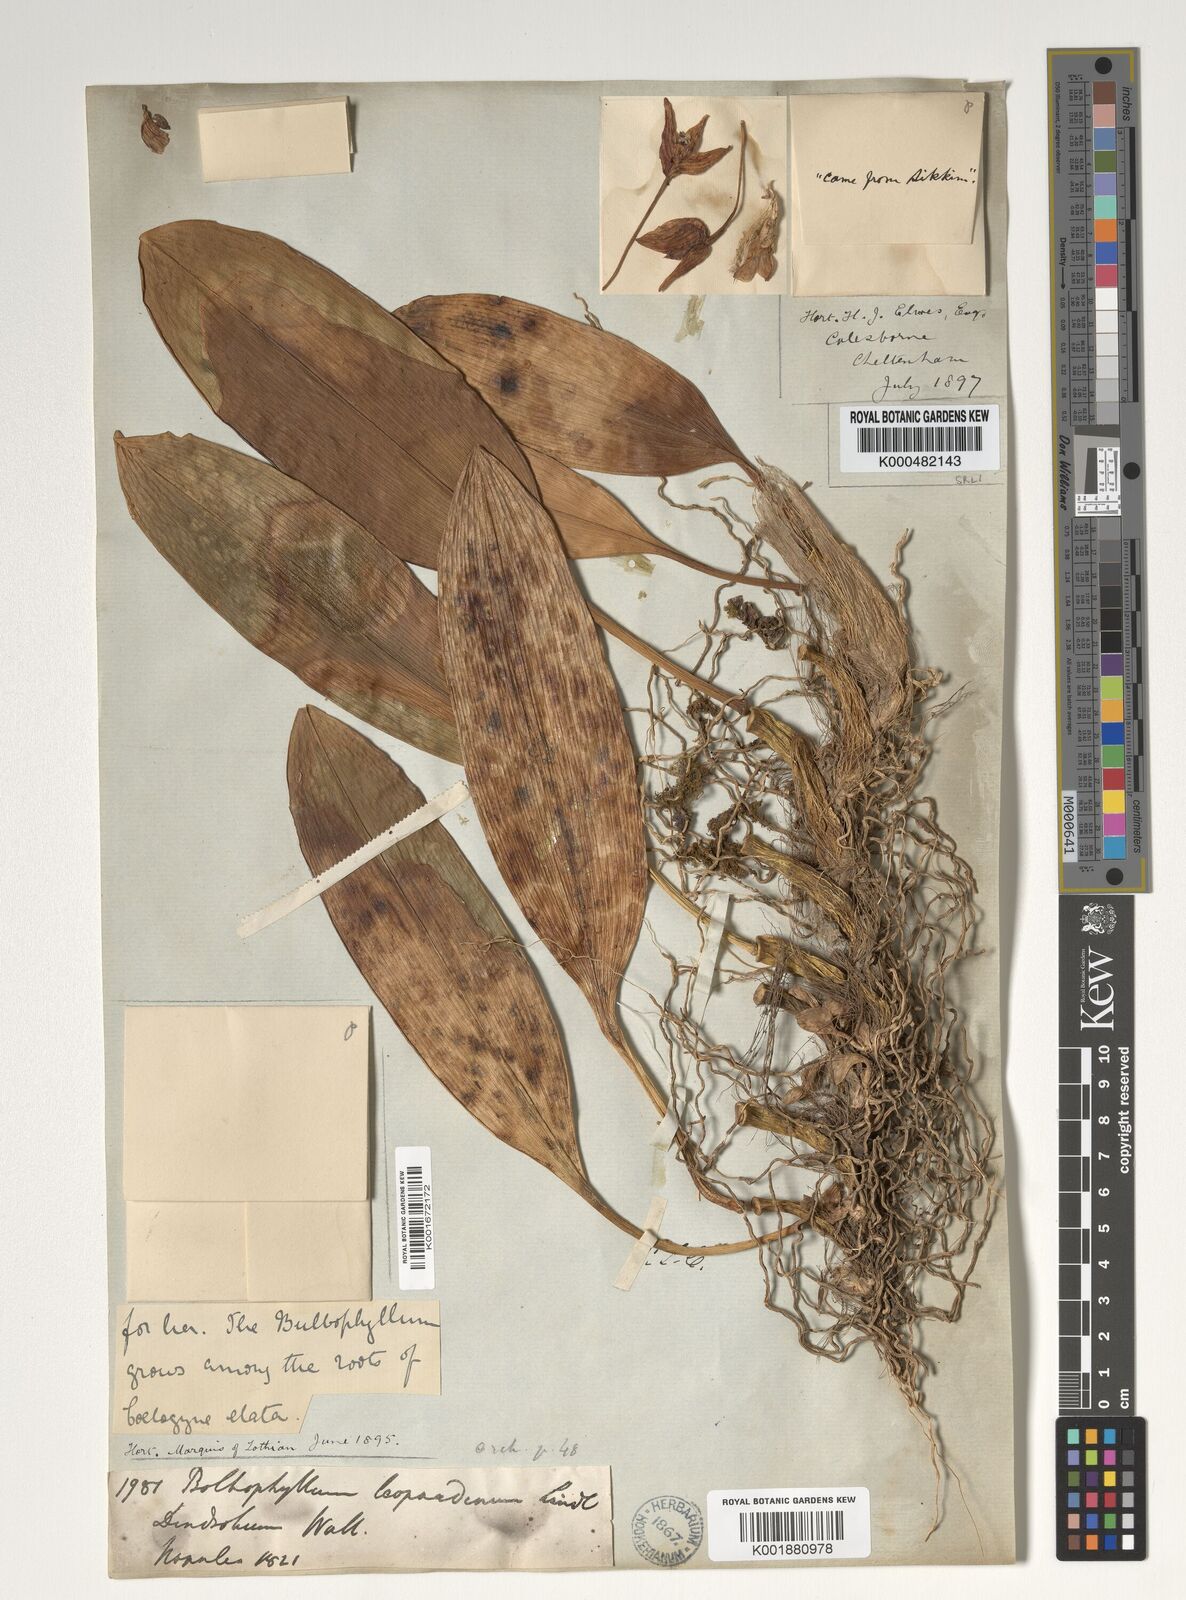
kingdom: Plantae
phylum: Tracheophyta
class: Liliopsida
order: Asparagales
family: Orchidaceae
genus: Bulbophyllum
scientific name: Bulbophyllum leopardinum
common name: Leopard spotted bulbophyllum
